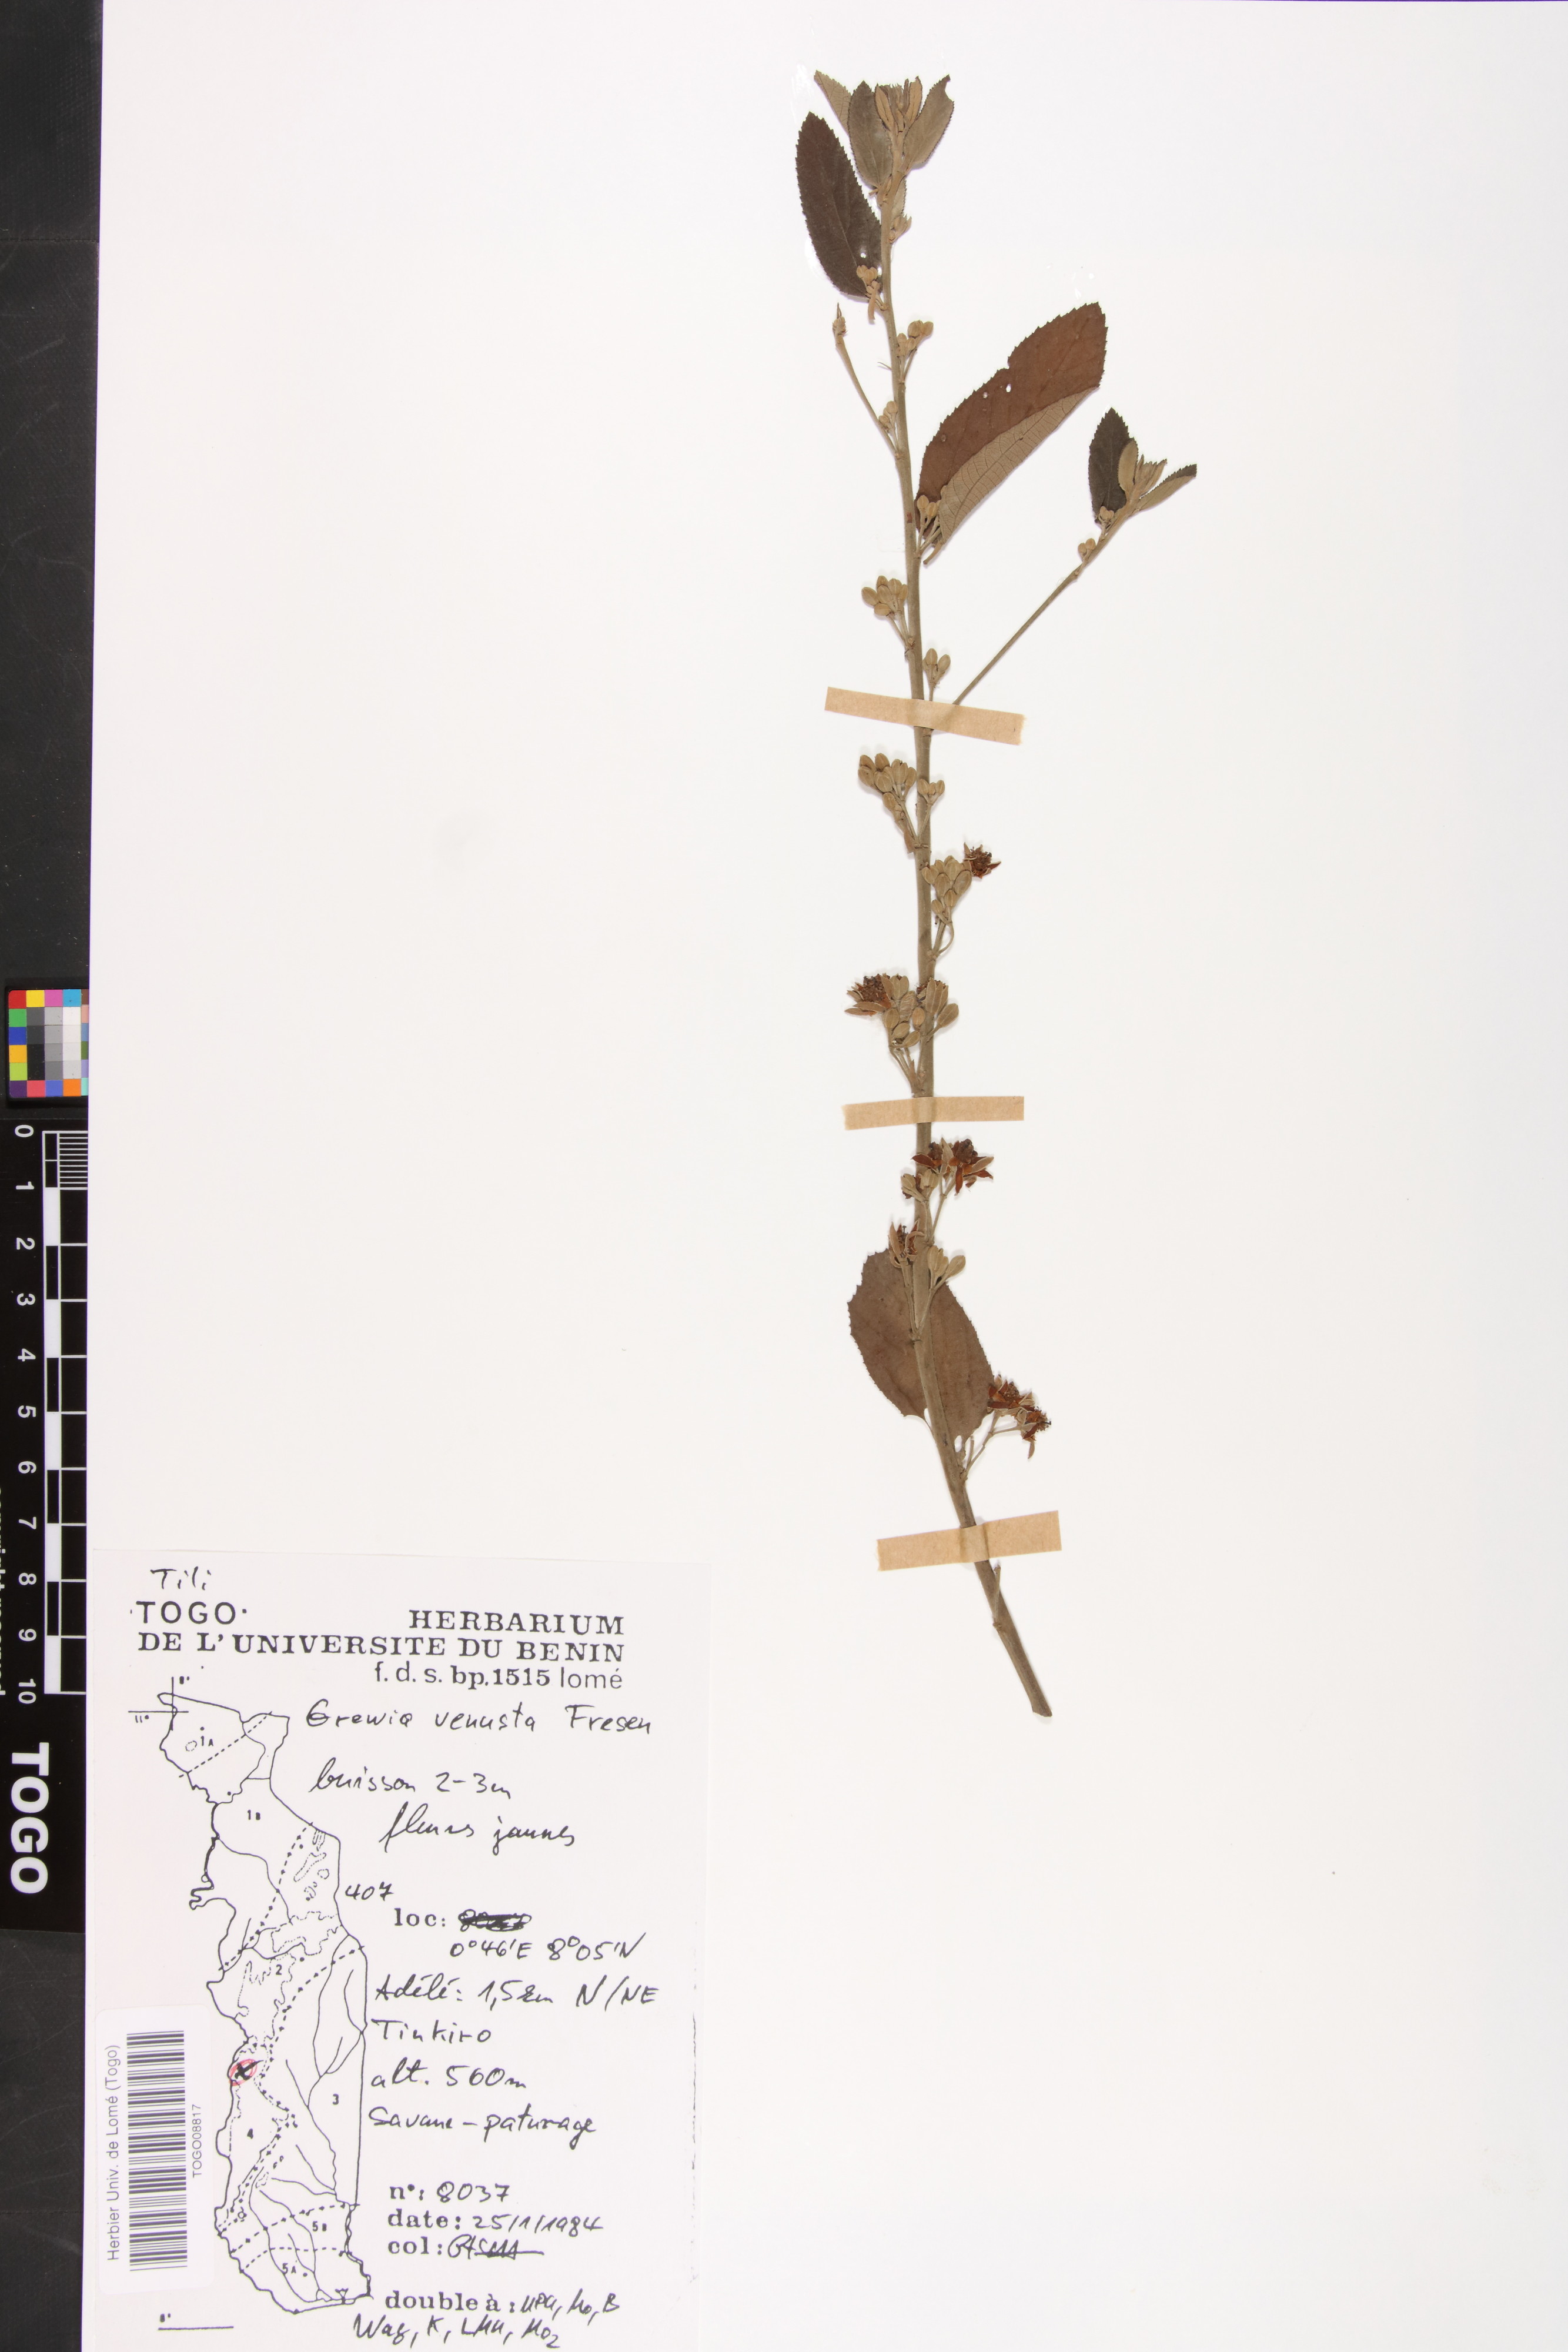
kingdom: Plantae
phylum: Tracheophyta
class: Magnoliopsida
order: Malvales
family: Malvaceae
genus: Grewia
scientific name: Grewia mollis
